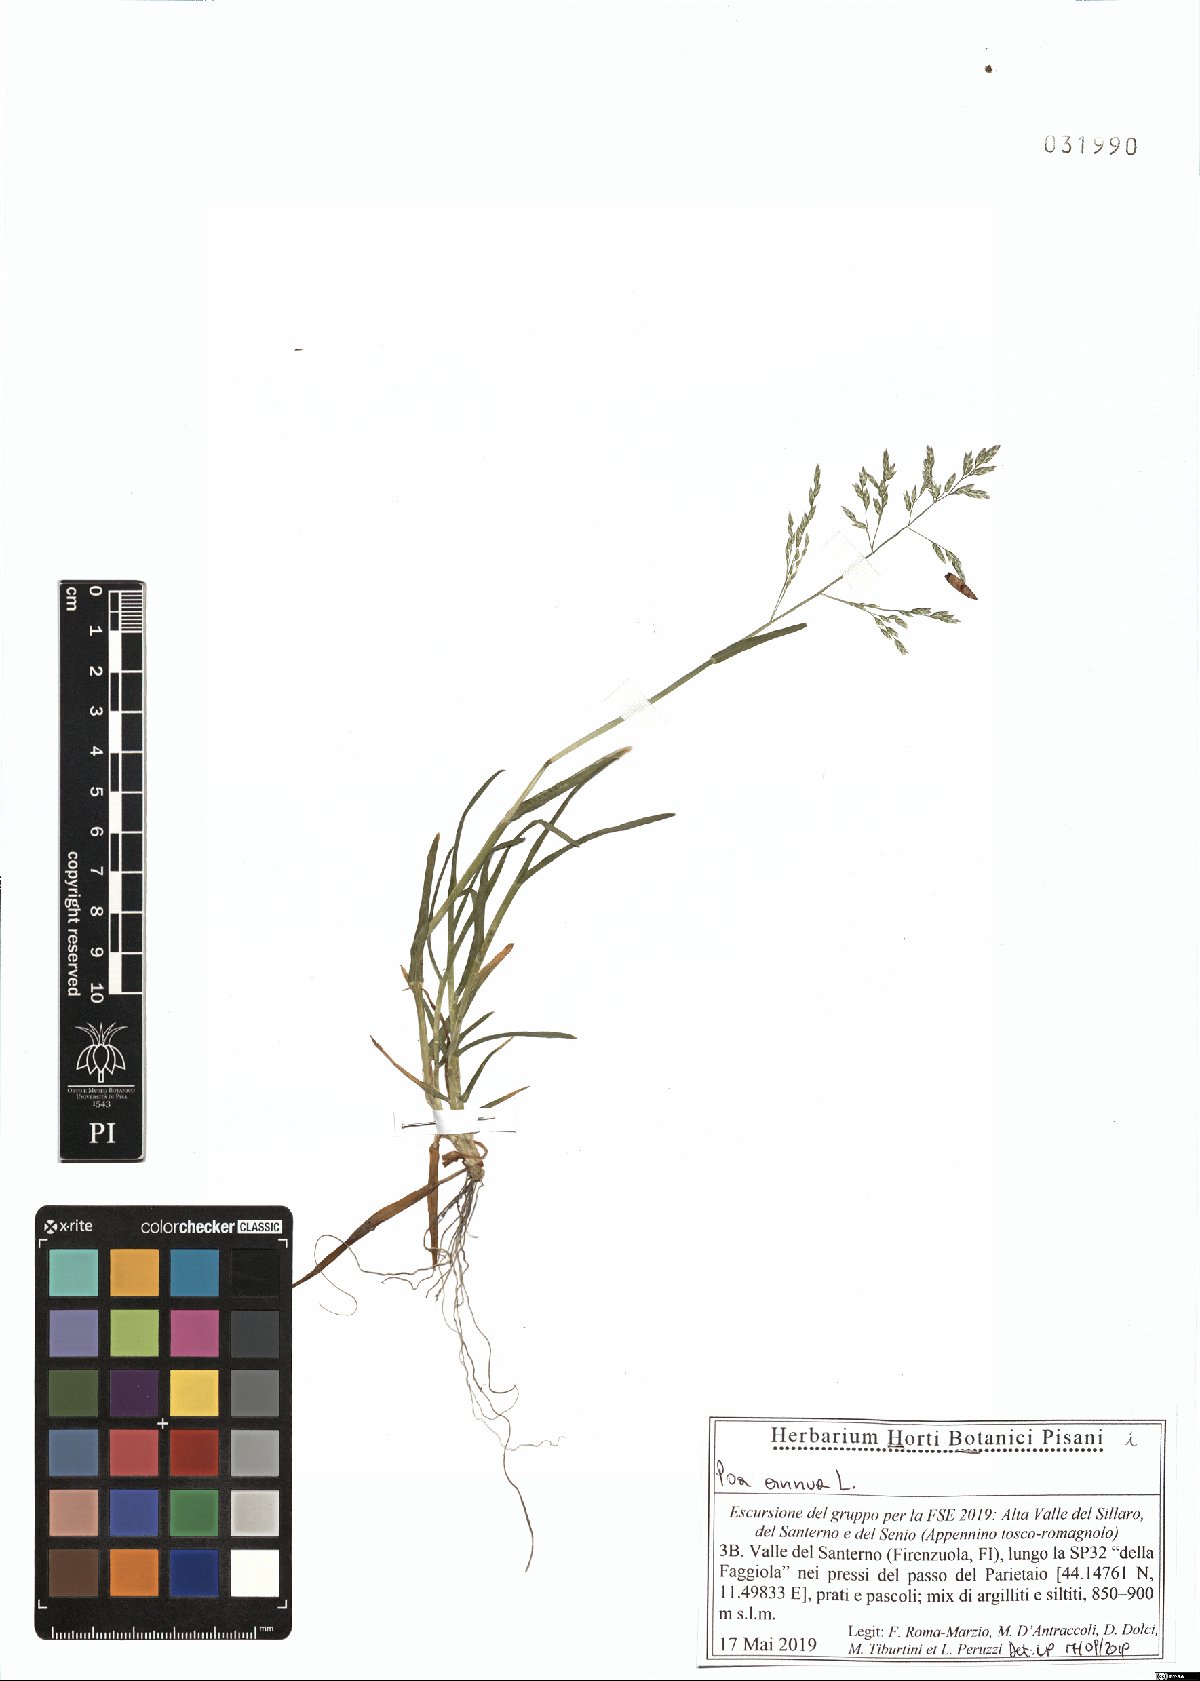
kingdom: Plantae
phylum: Tracheophyta
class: Liliopsida
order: Poales
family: Poaceae
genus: Poa
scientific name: Poa annua
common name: Annual bluegrass
